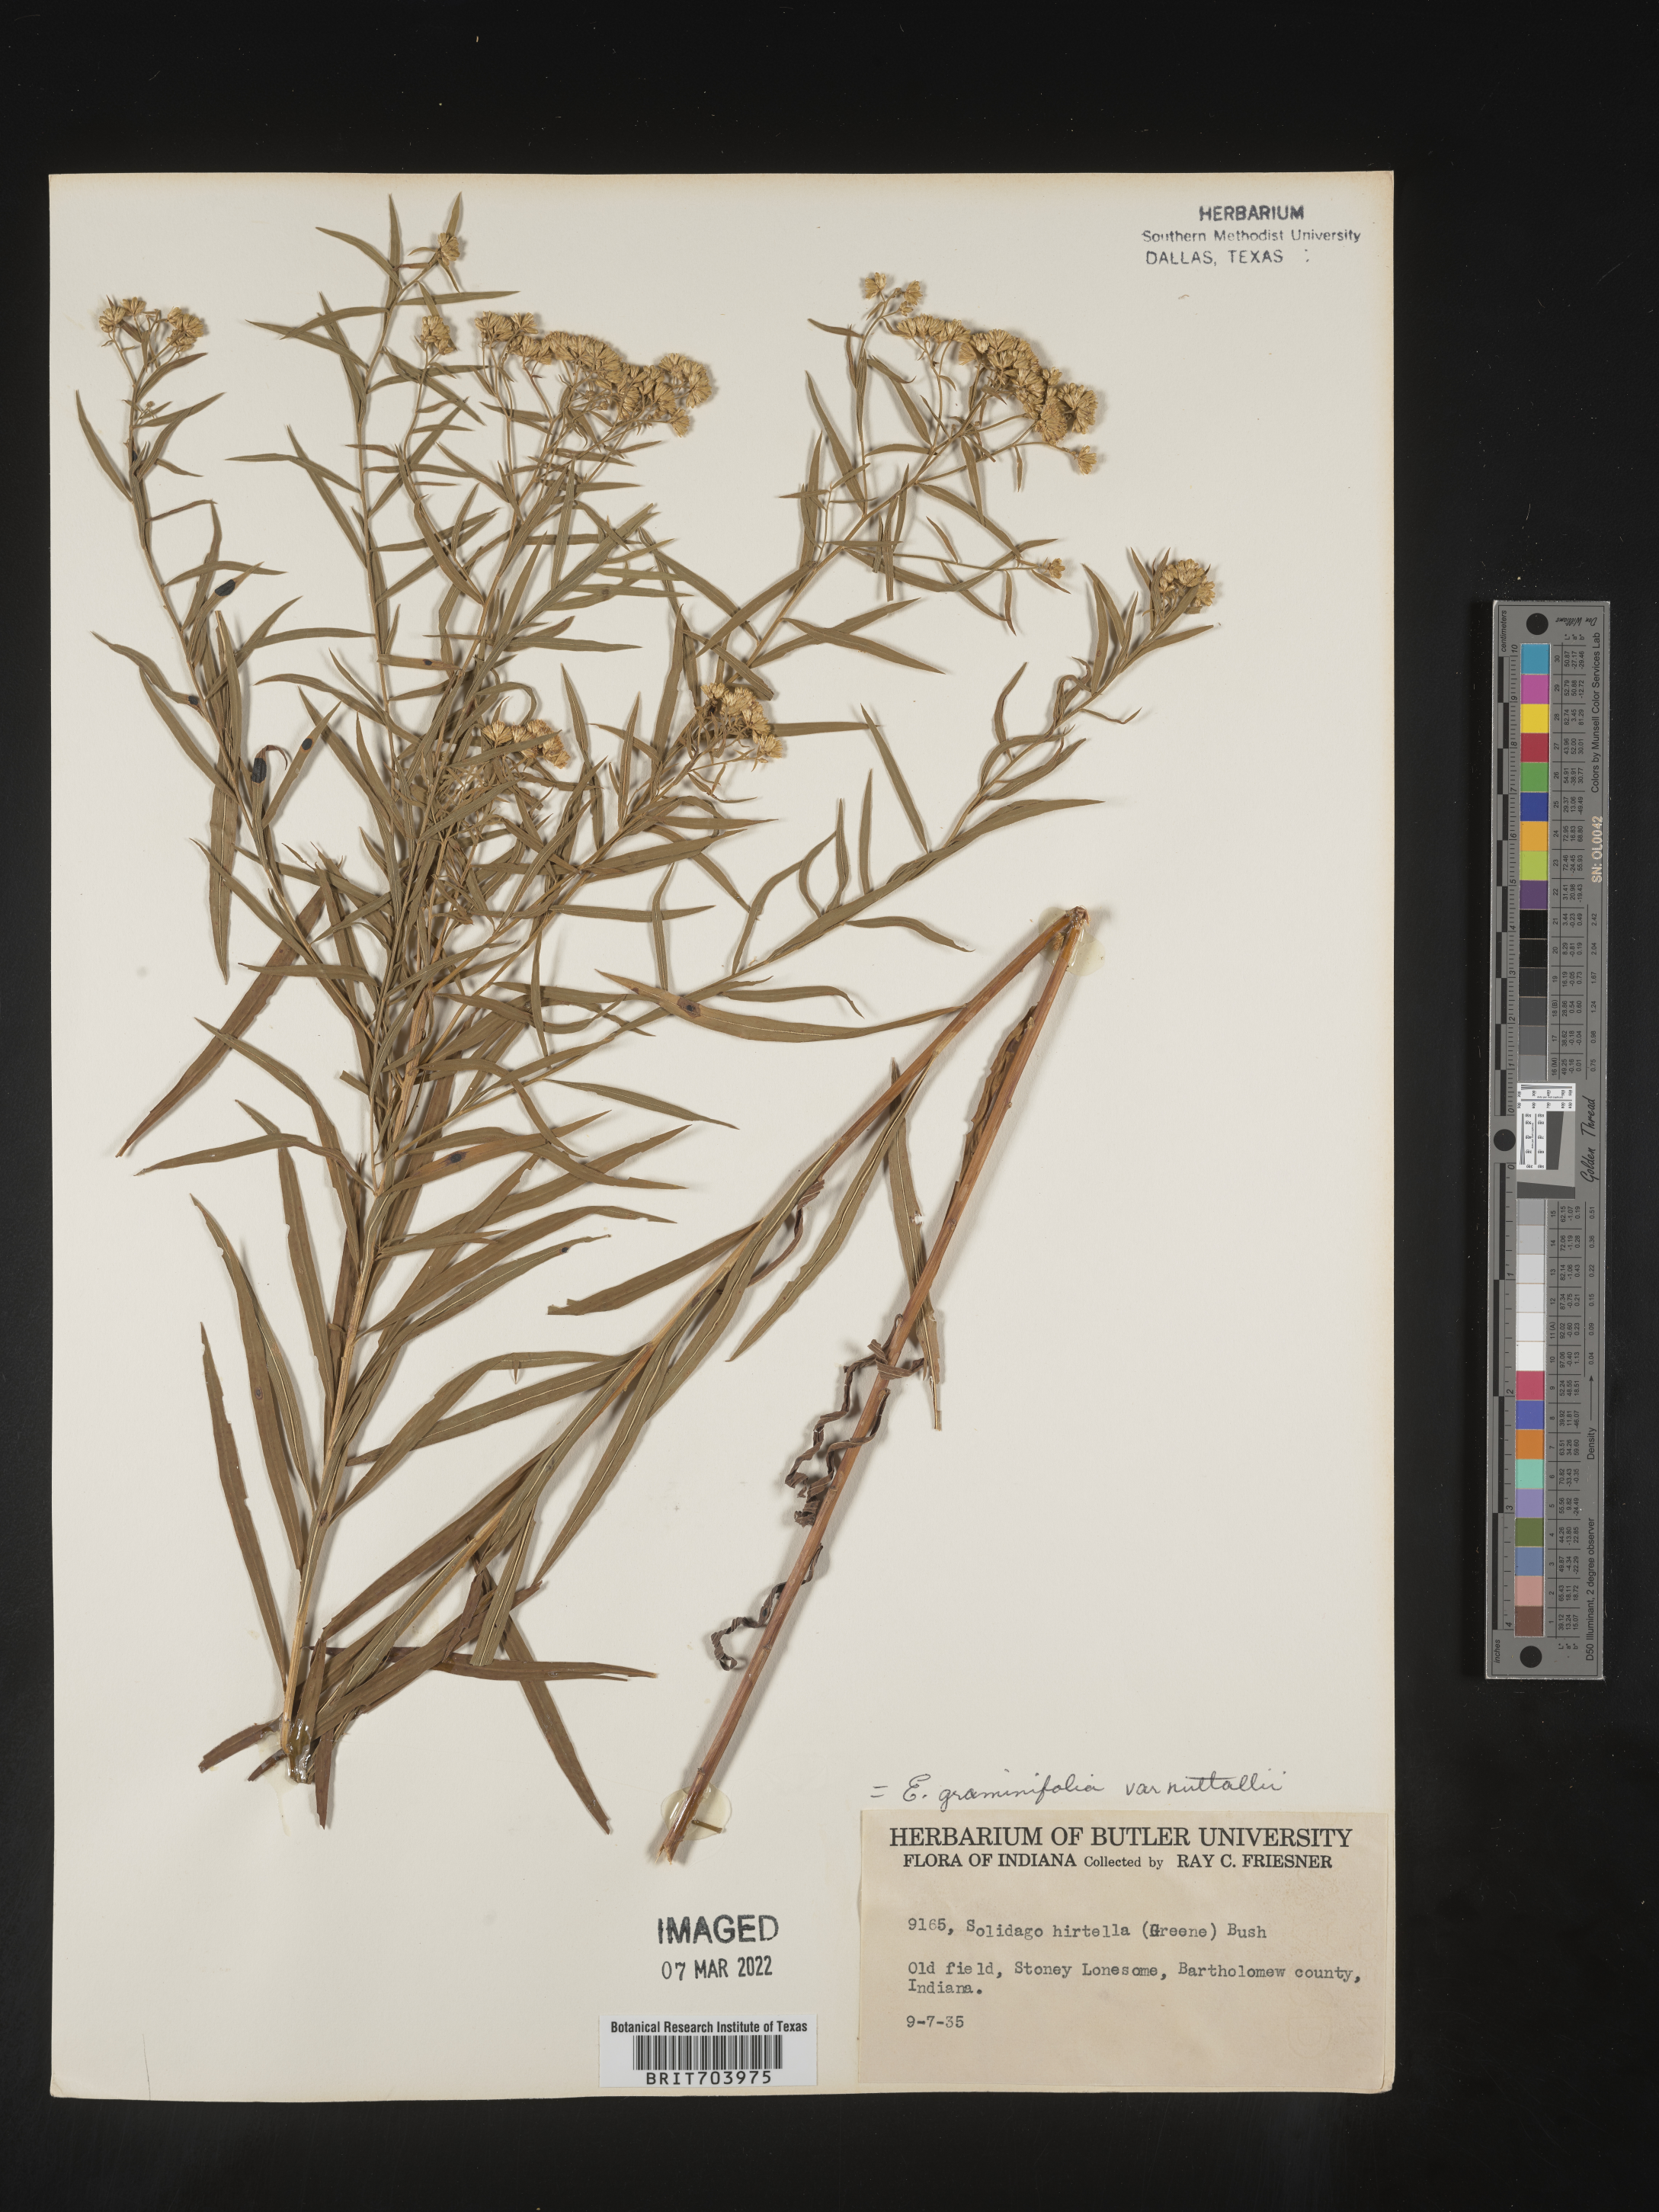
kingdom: Plantae
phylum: Tracheophyta
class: Magnoliopsida
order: Asterales
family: Asteraceae
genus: Euthamia
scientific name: Euthamia graminifolia
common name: Common goldentop
